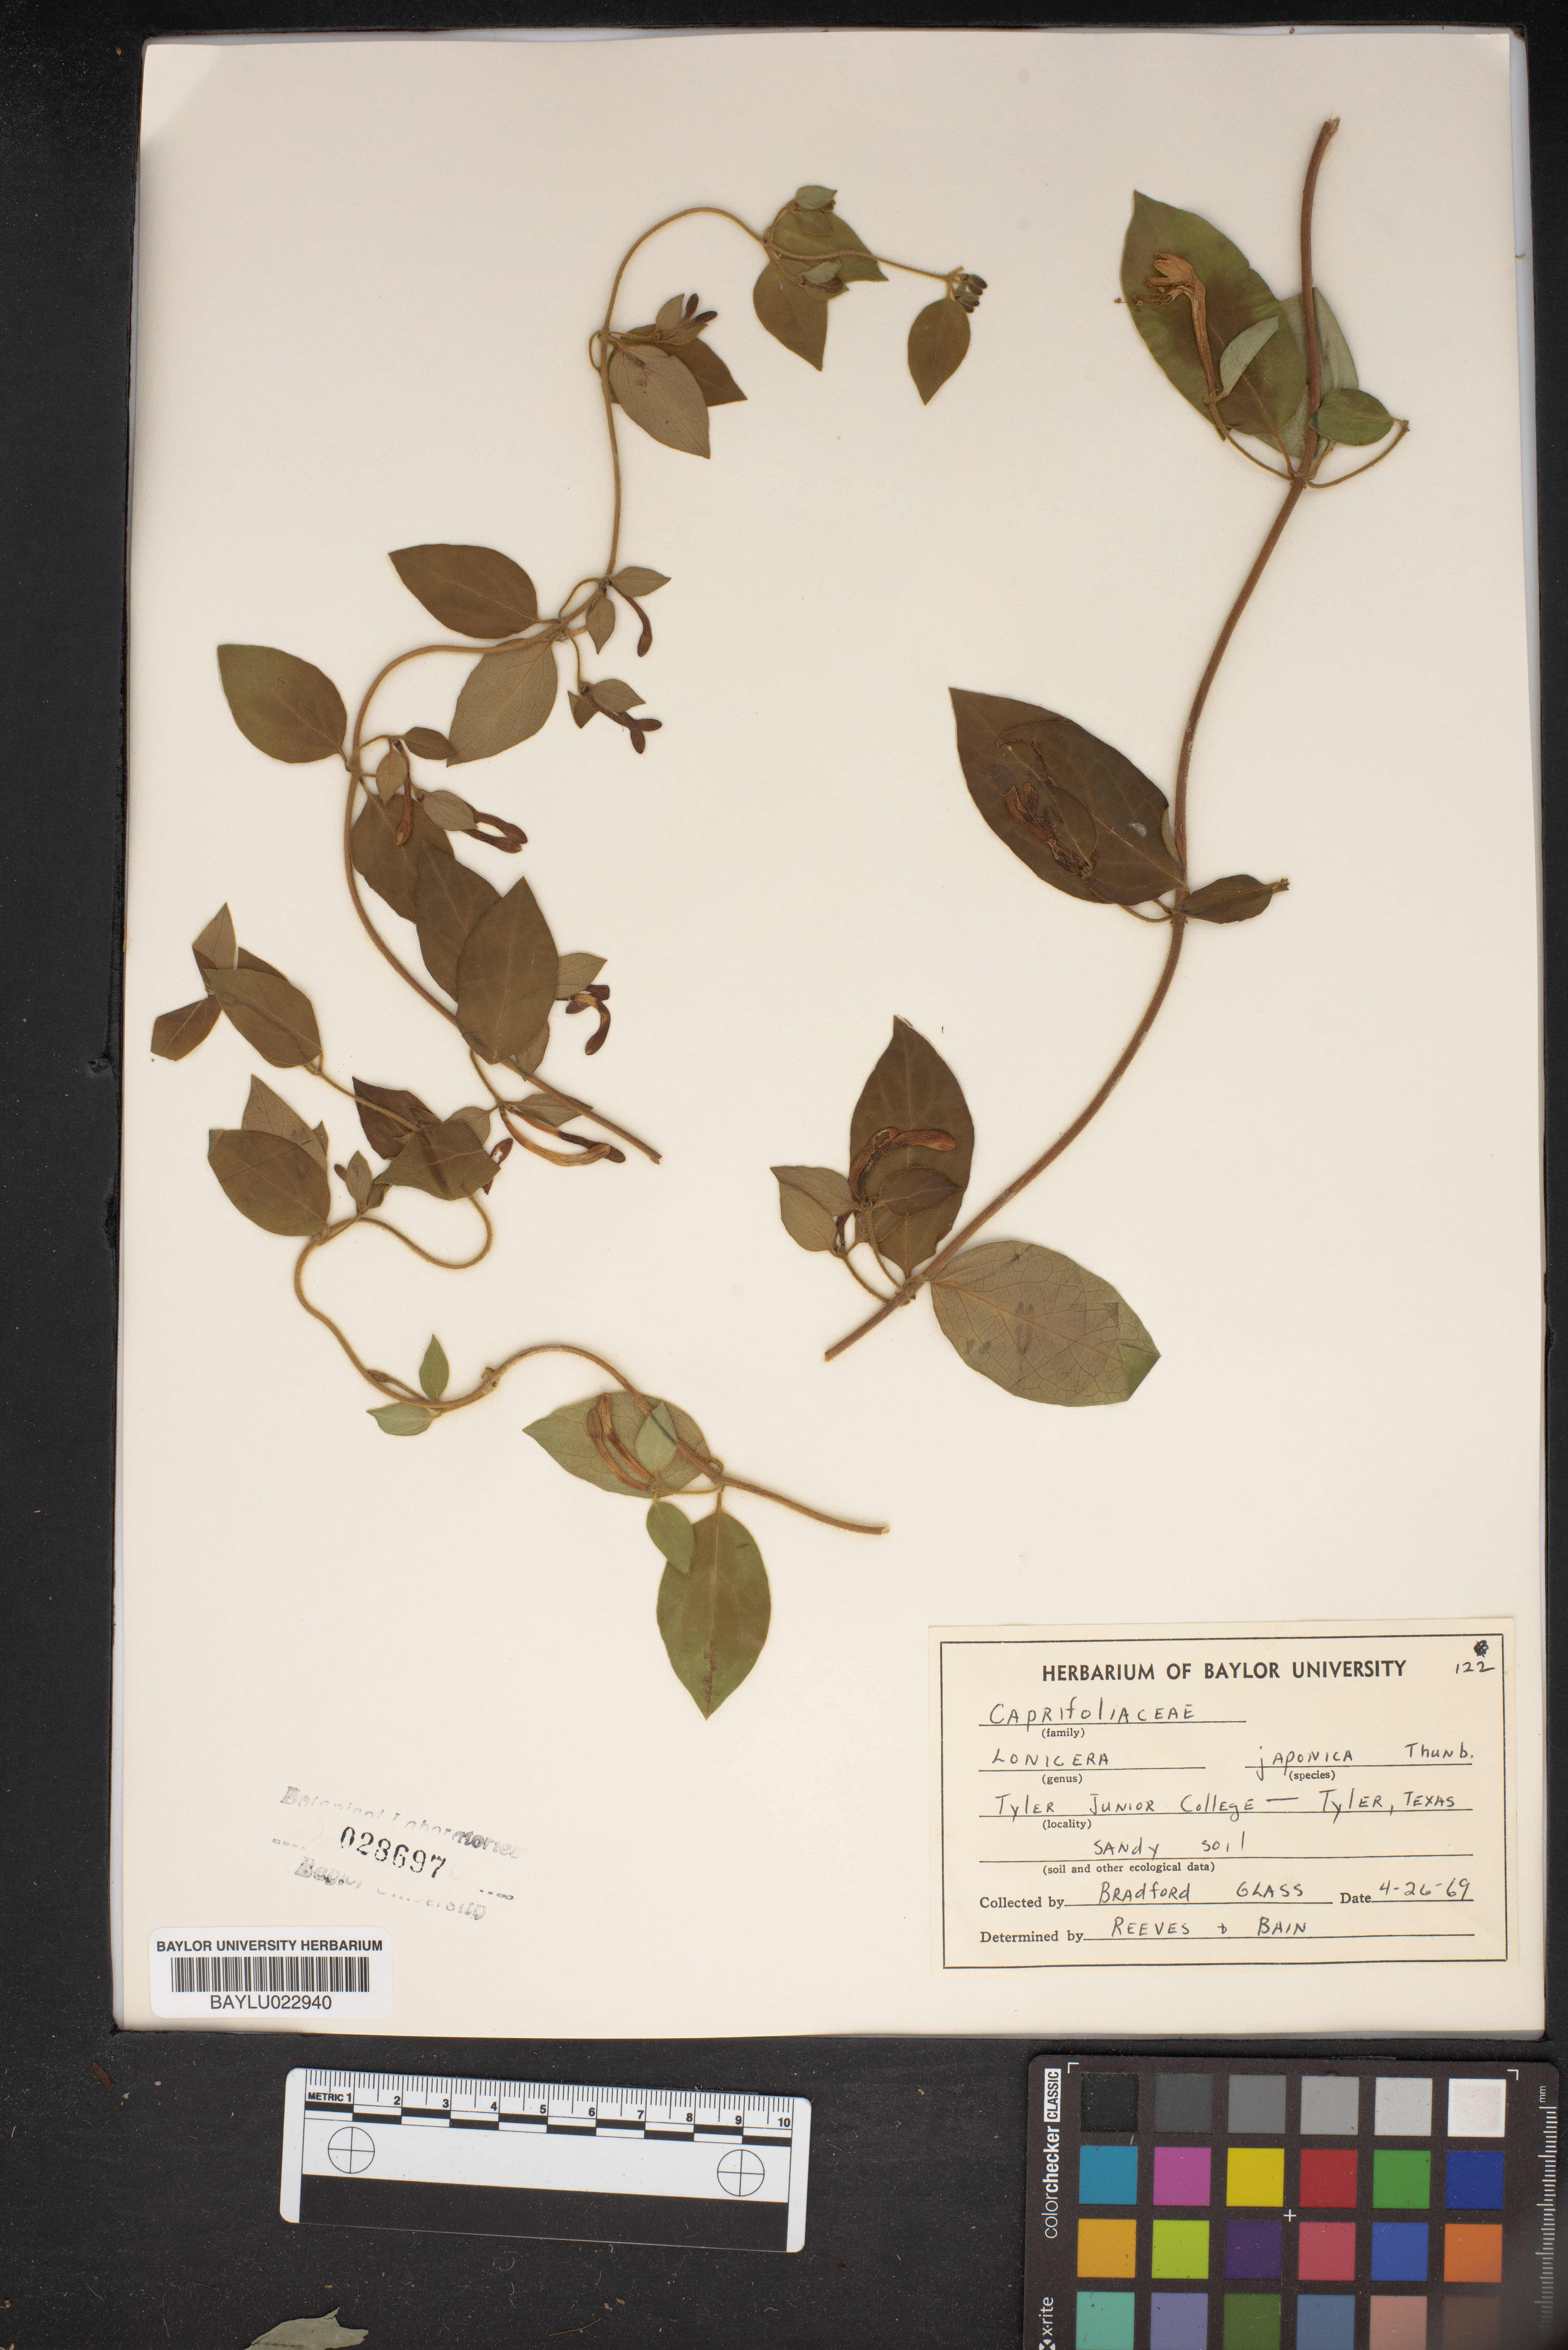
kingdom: Plantae
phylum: Tracheophyta
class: Magnoliopsida
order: Dipsacales
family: Caprifoliaceae
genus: Lonicera
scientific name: Lonicera japonica
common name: Japanese honeysuckle
